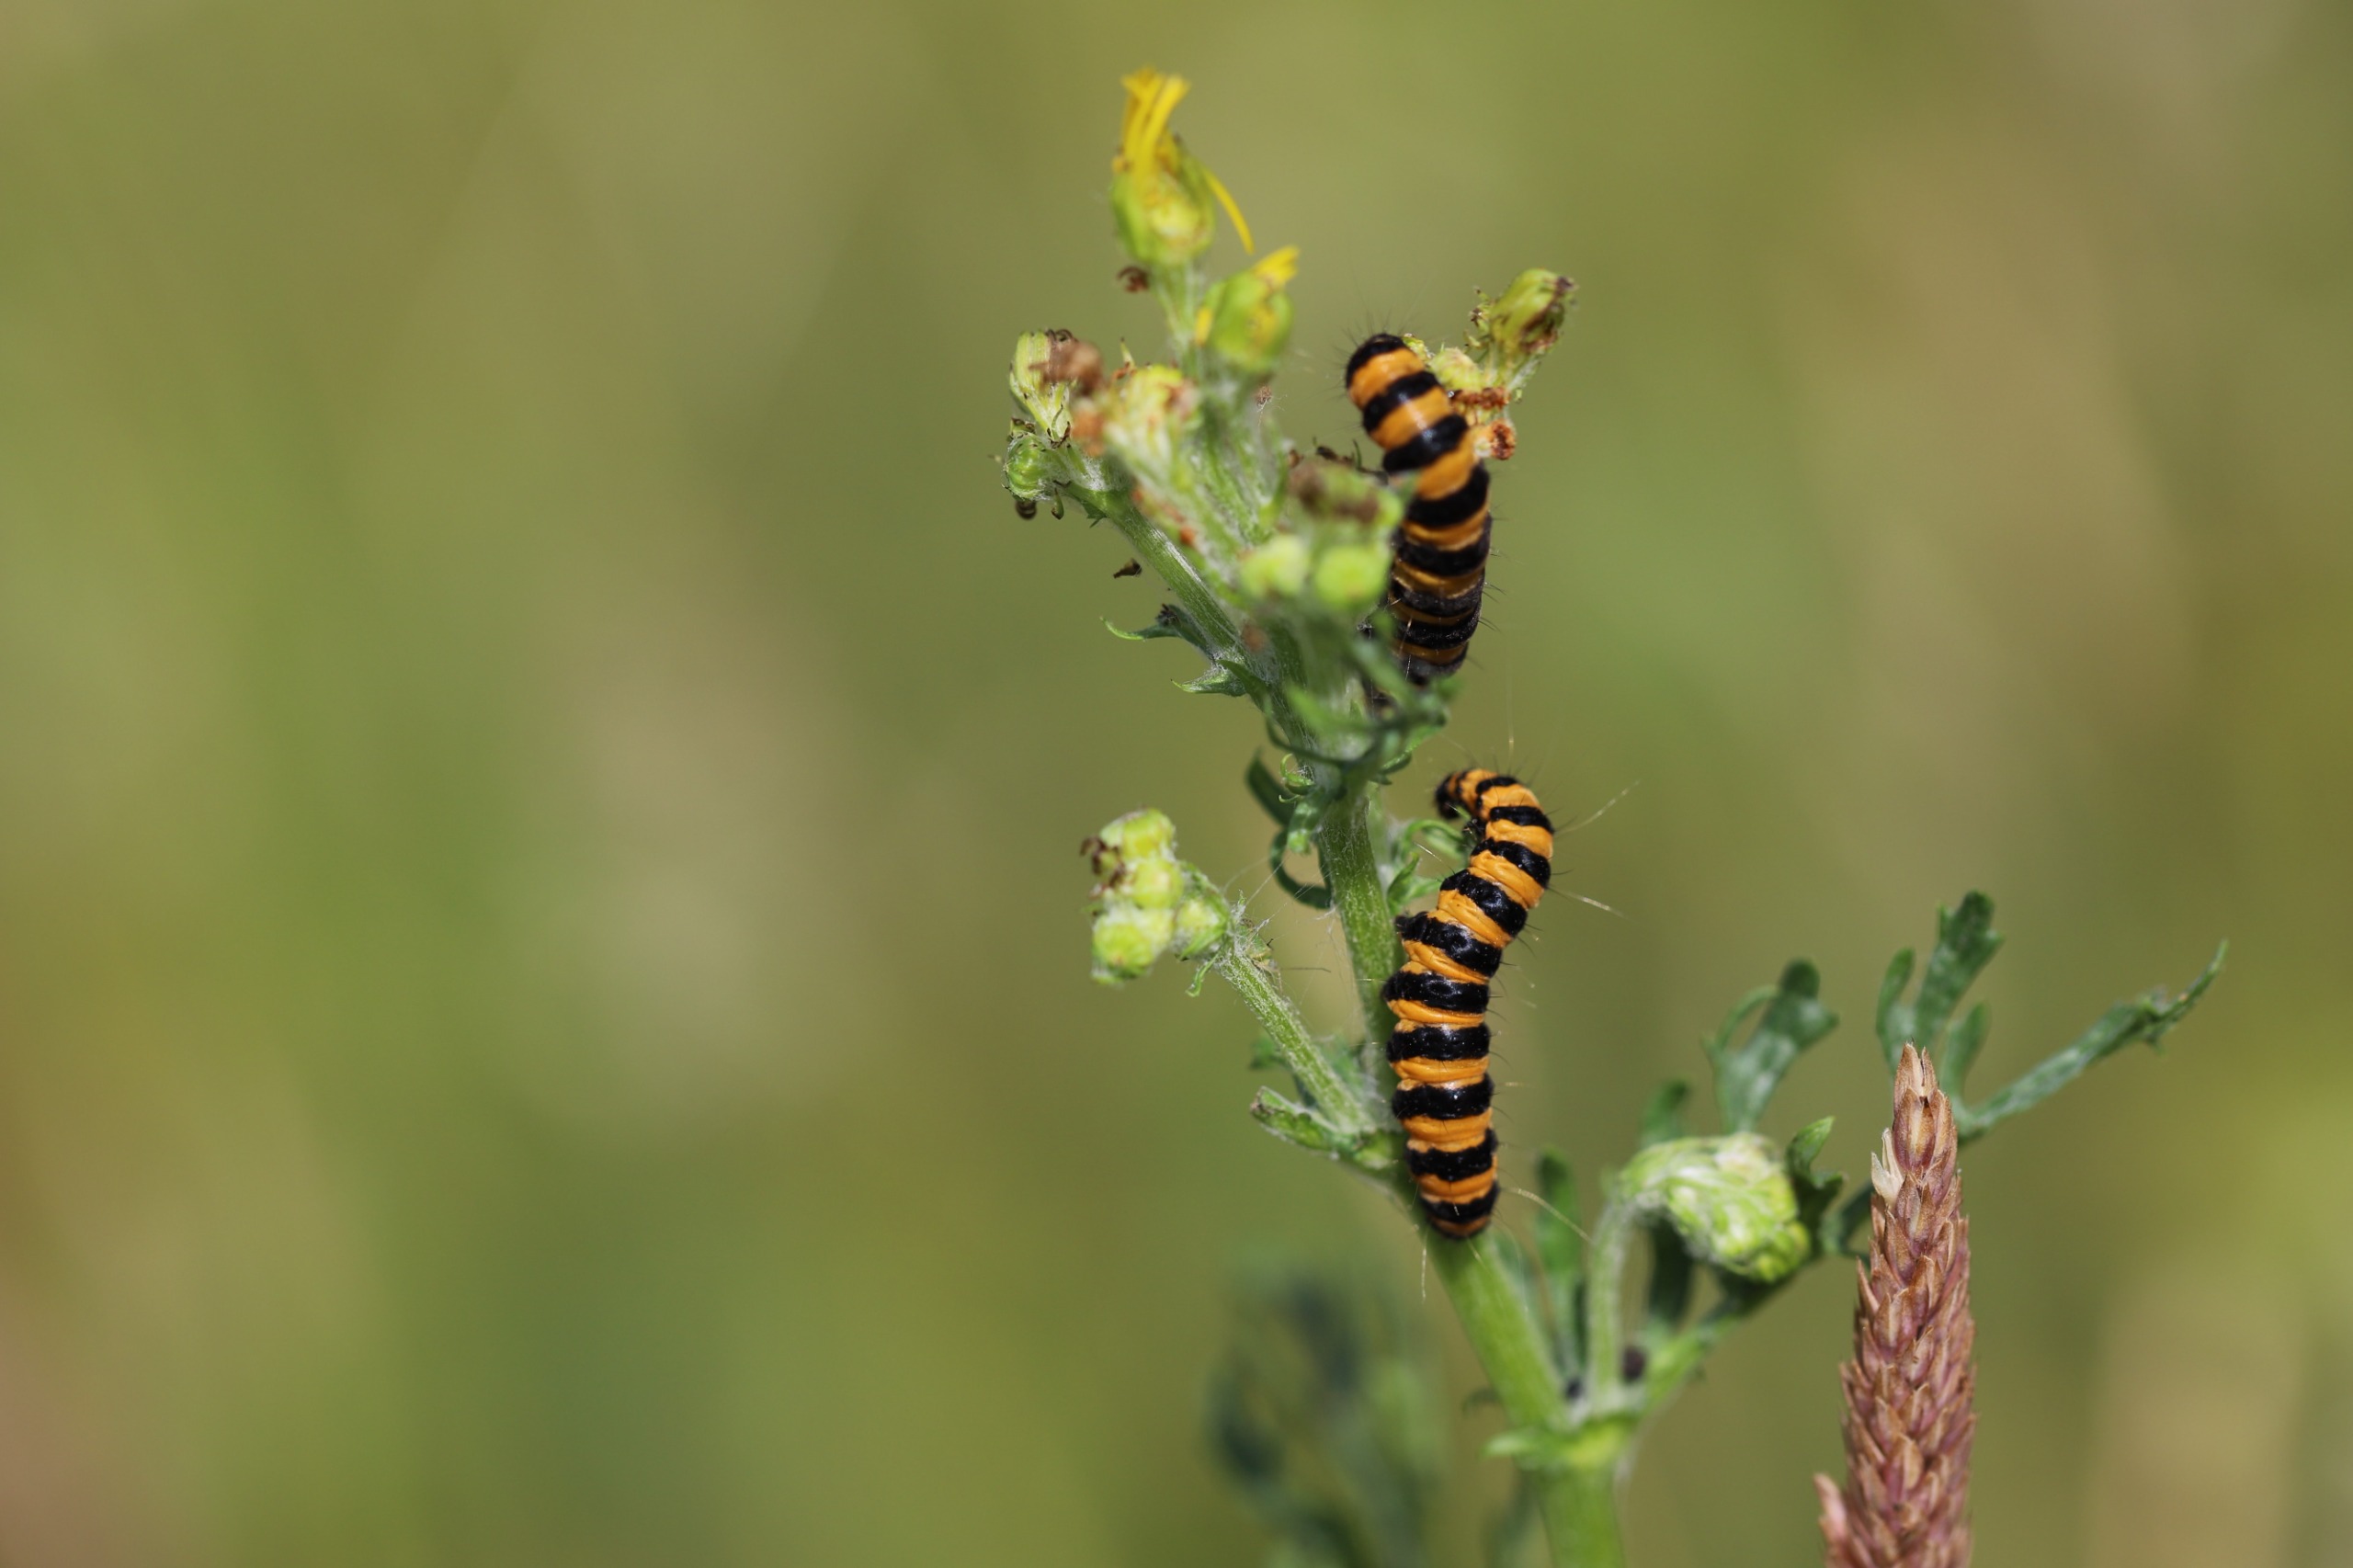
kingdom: Animalia
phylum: Arthropoda
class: Insecta
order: Lepidoptera
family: Erebidae
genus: Tyria
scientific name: Tyria jacobaeae
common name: Blodplet
